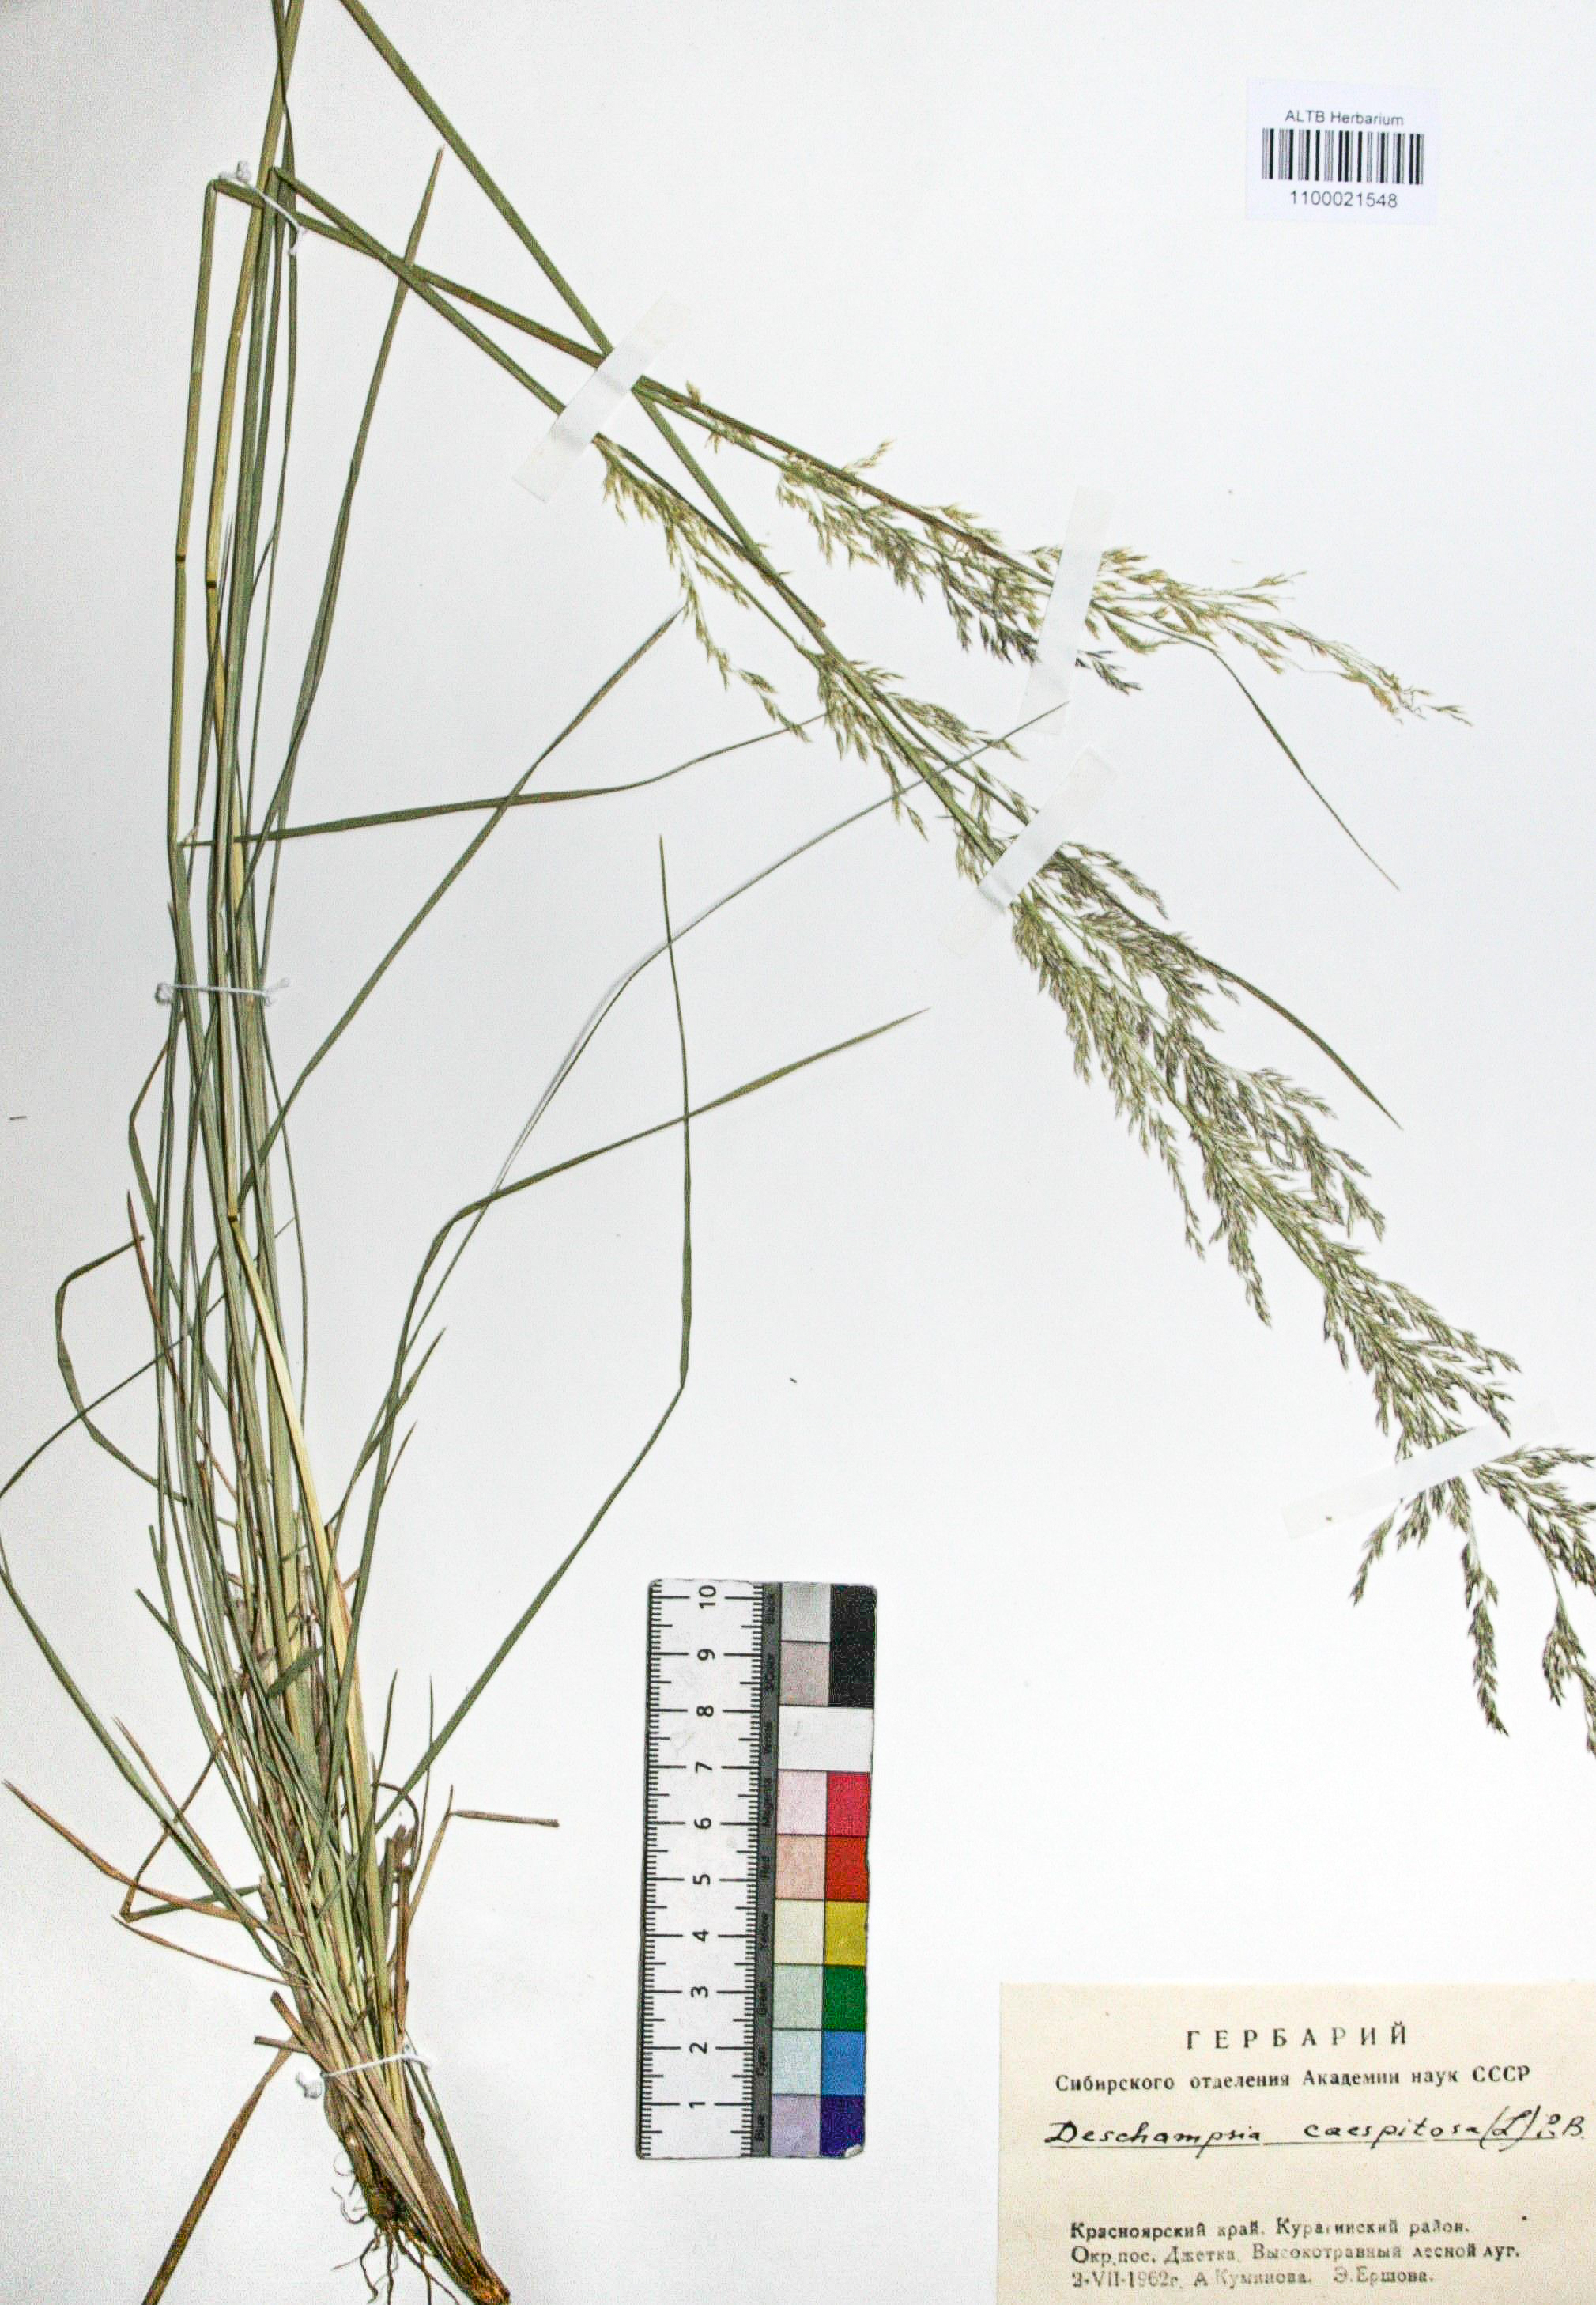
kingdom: Plantae
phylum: Tracheophyta
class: Liliopsida
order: Poales
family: Poaceae
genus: Deschampsia
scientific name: Deschampsia cespitosa
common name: Tufted hair-grass
